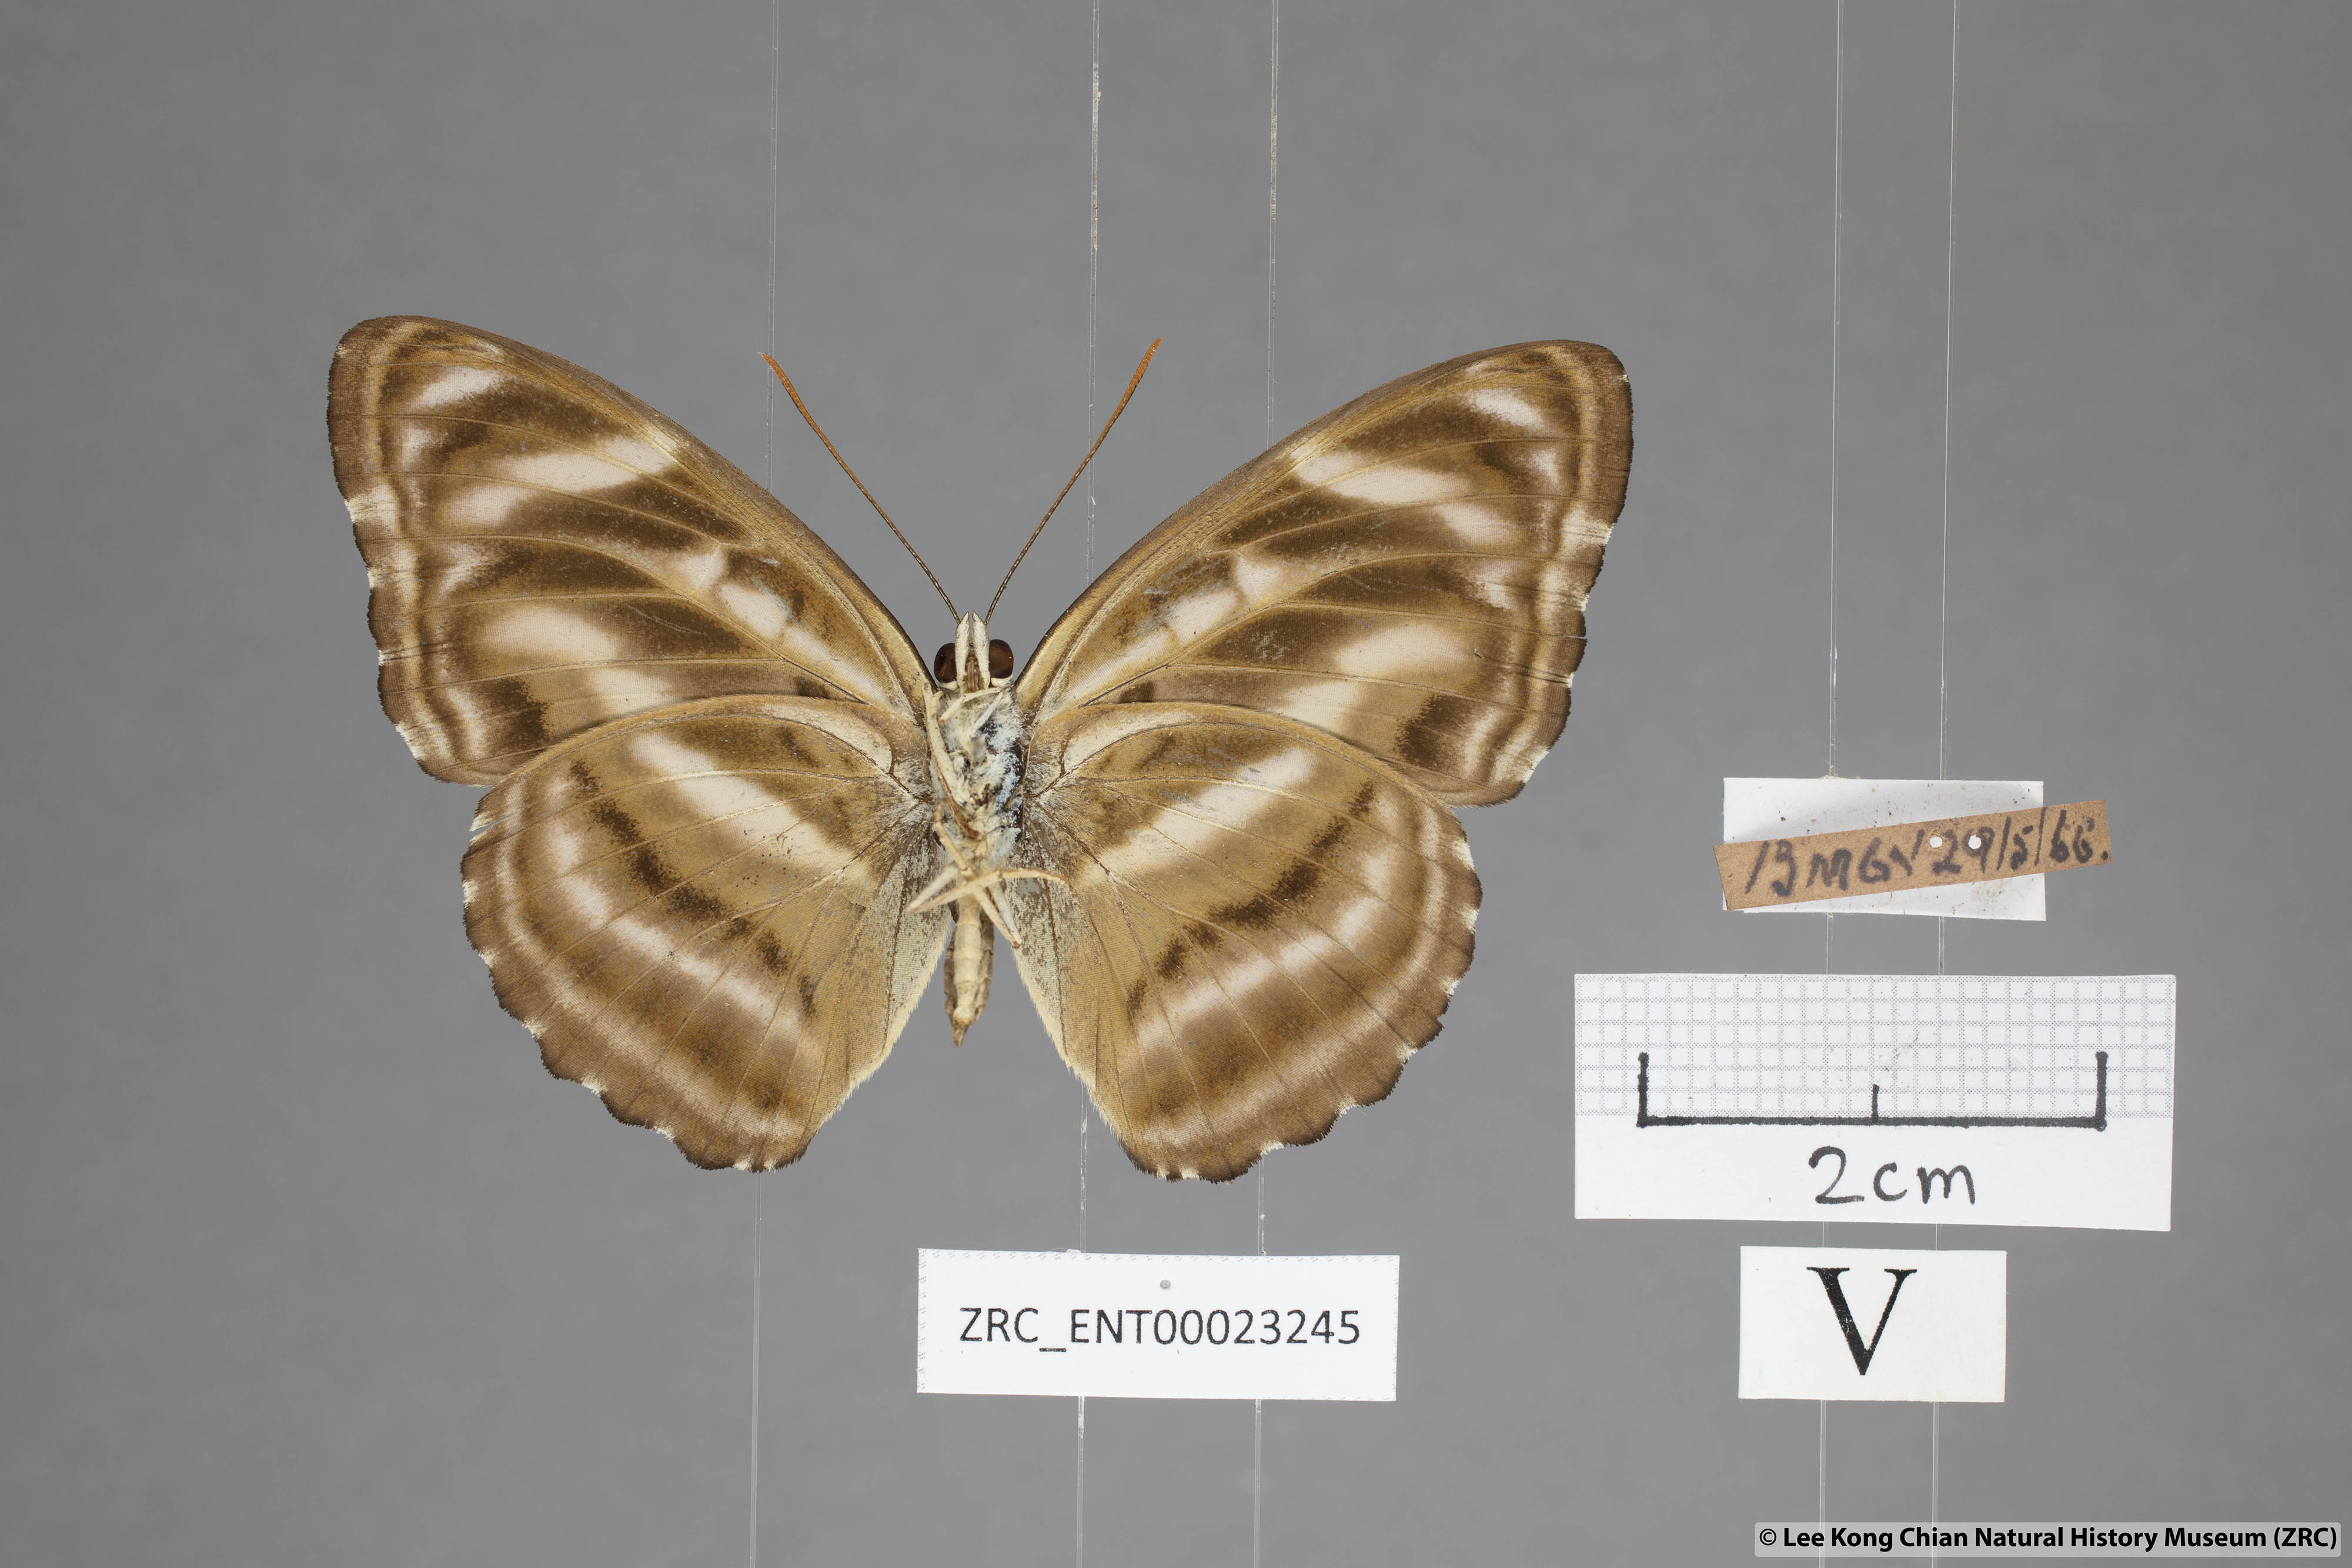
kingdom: Animalia
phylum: Arthropoda
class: Insecta
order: Lepidoptera
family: Nymphalidae
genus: Parathyma
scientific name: Parathyma nefte
